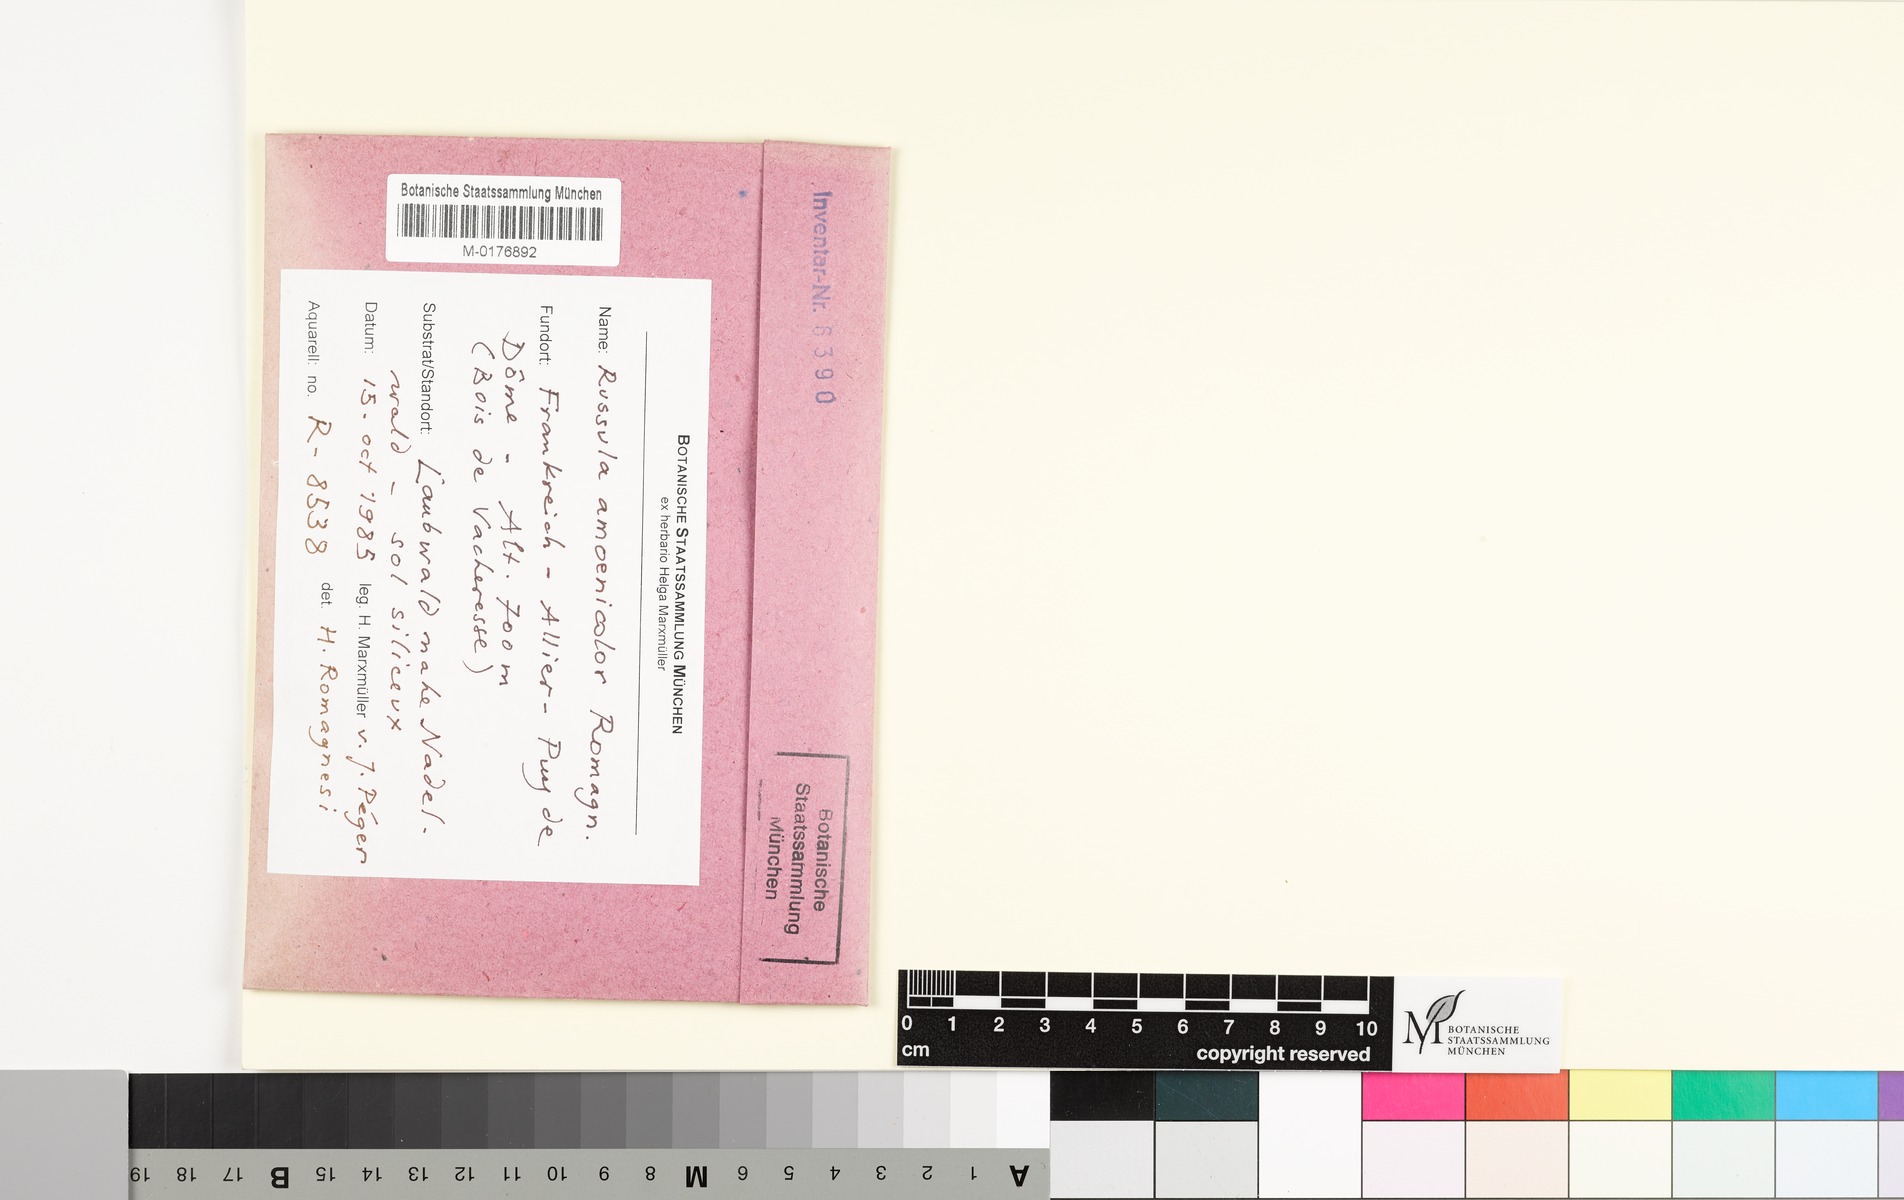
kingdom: Fungi
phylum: Basidiomycota
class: Agaricomycetes
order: Russulales
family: Russulaceae
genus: Russula
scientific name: Russula amoena
